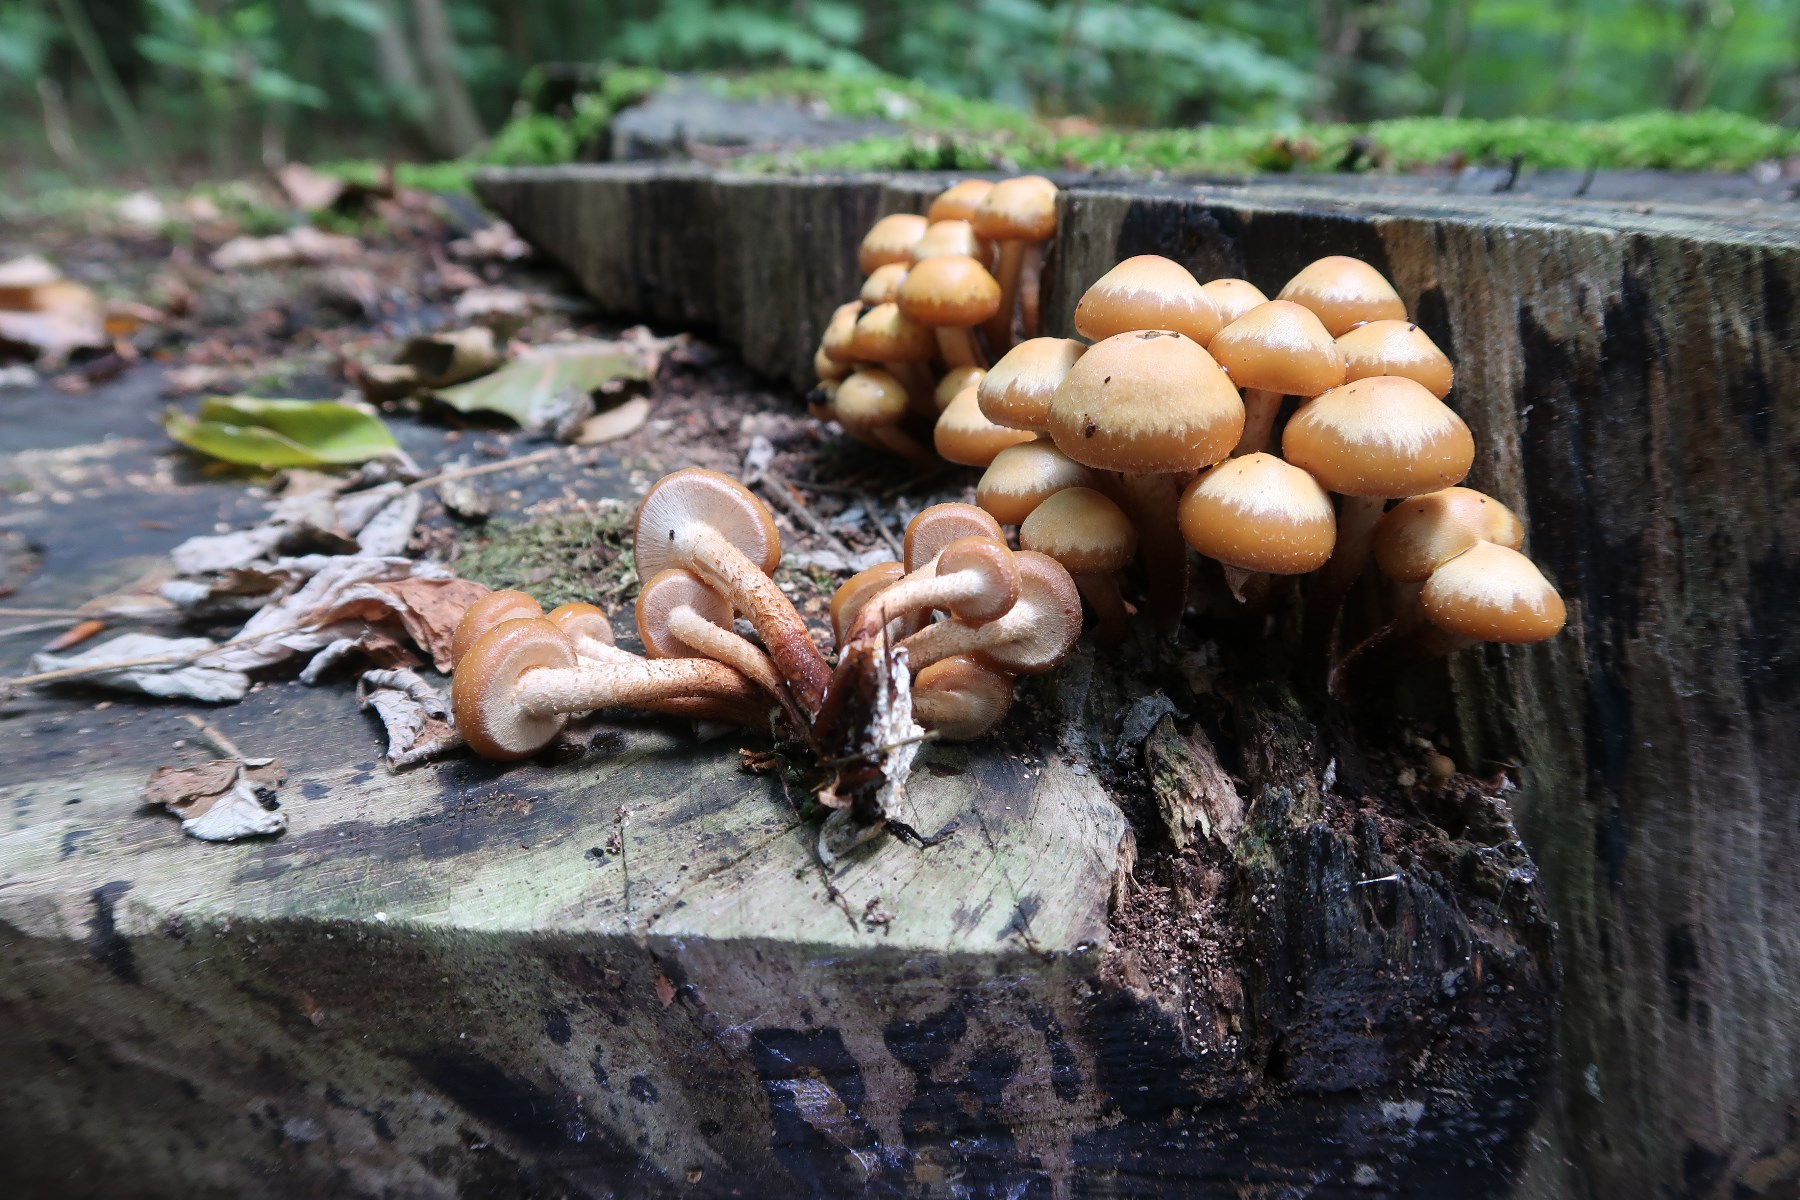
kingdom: Fungi
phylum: Basidiomycota
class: Agaricomycetes
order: Agaricales
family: Strophariaceae
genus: Kuehneromyces
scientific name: Kuehneromyces mutabilis
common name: foranderlig skælhat
